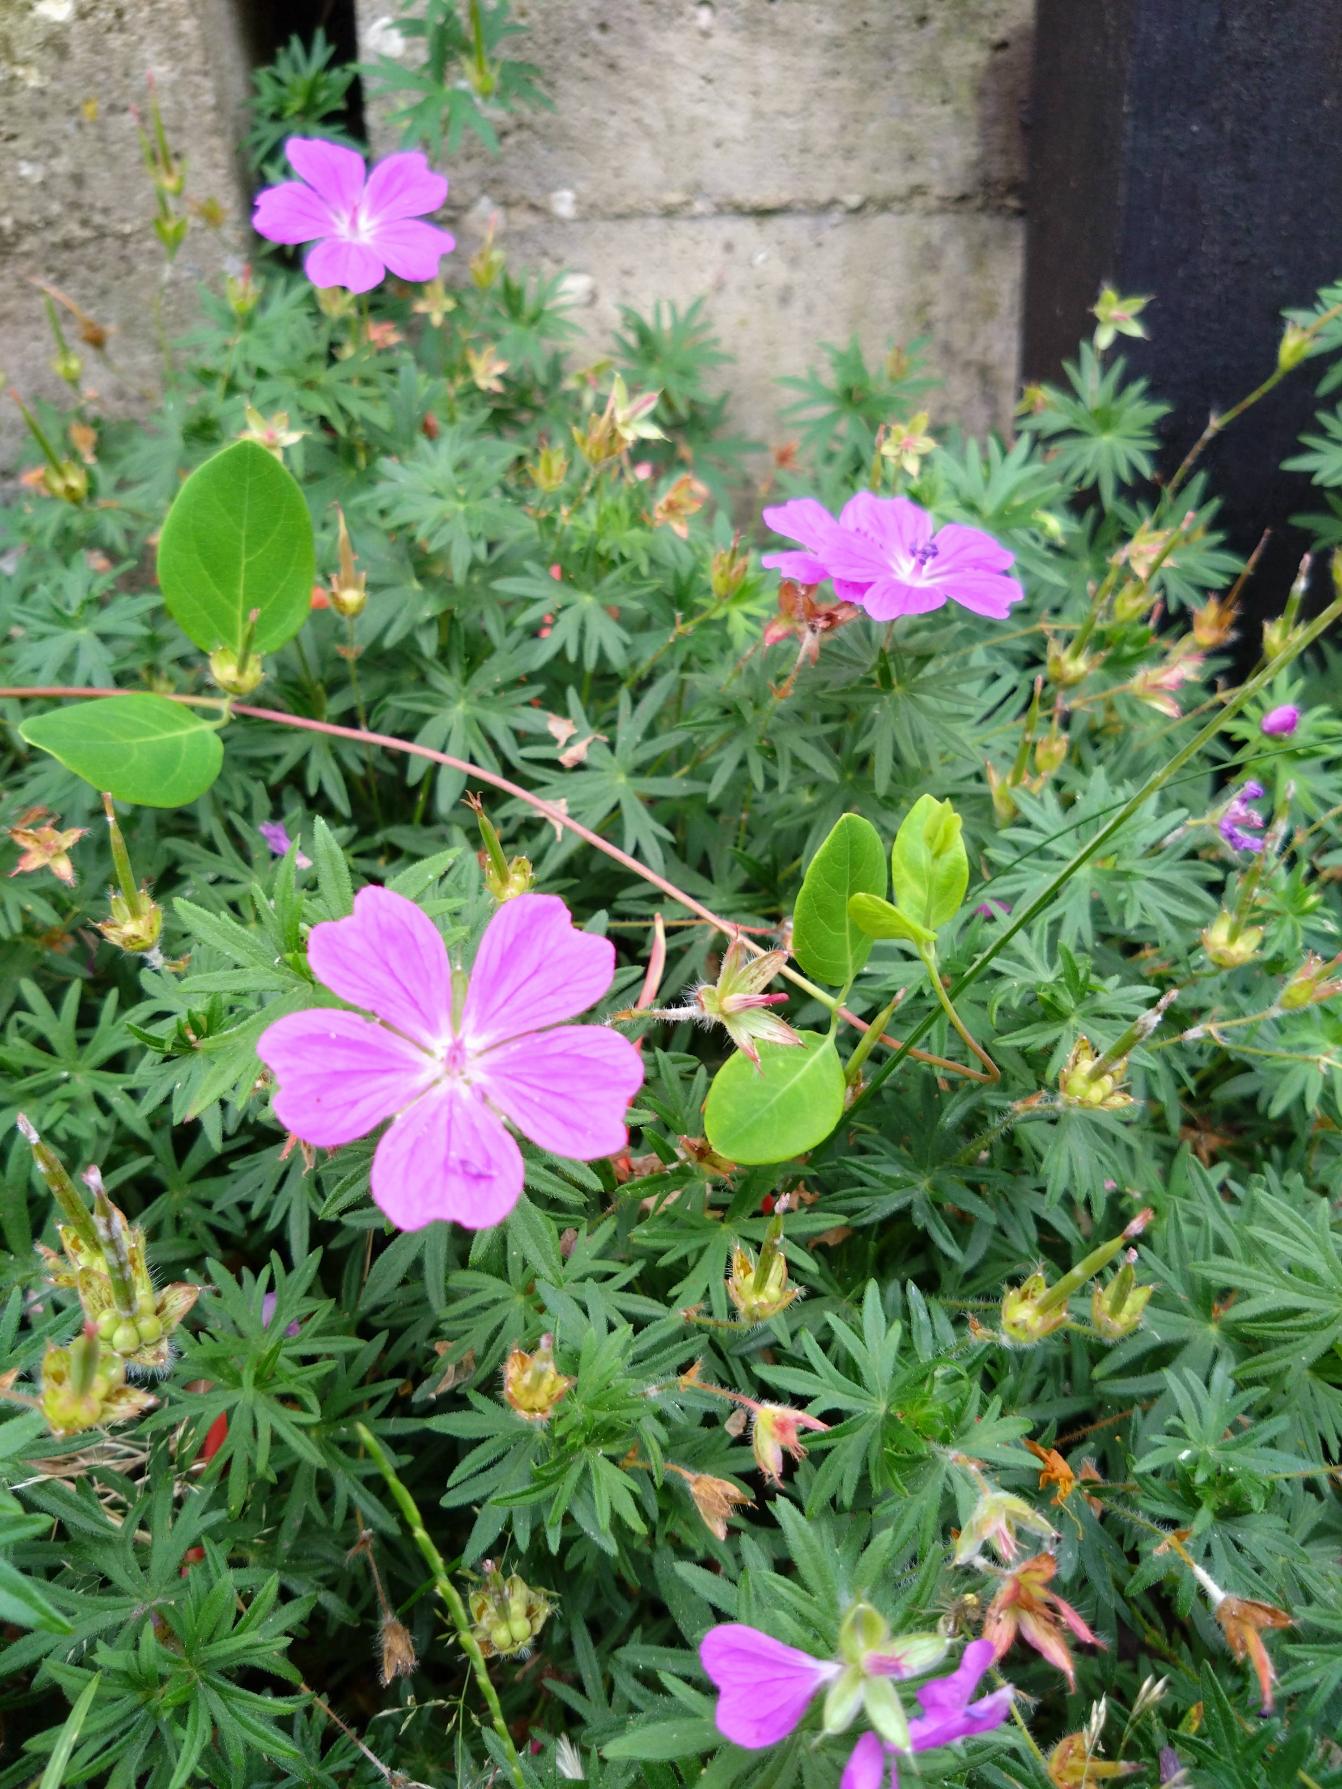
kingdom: Plantae
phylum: Tracheophyta
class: Magnoliopsida
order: Geraniales
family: Geraniaceae
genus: Geranium
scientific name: Geranium sanguineum
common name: Blodrød storkenæb
